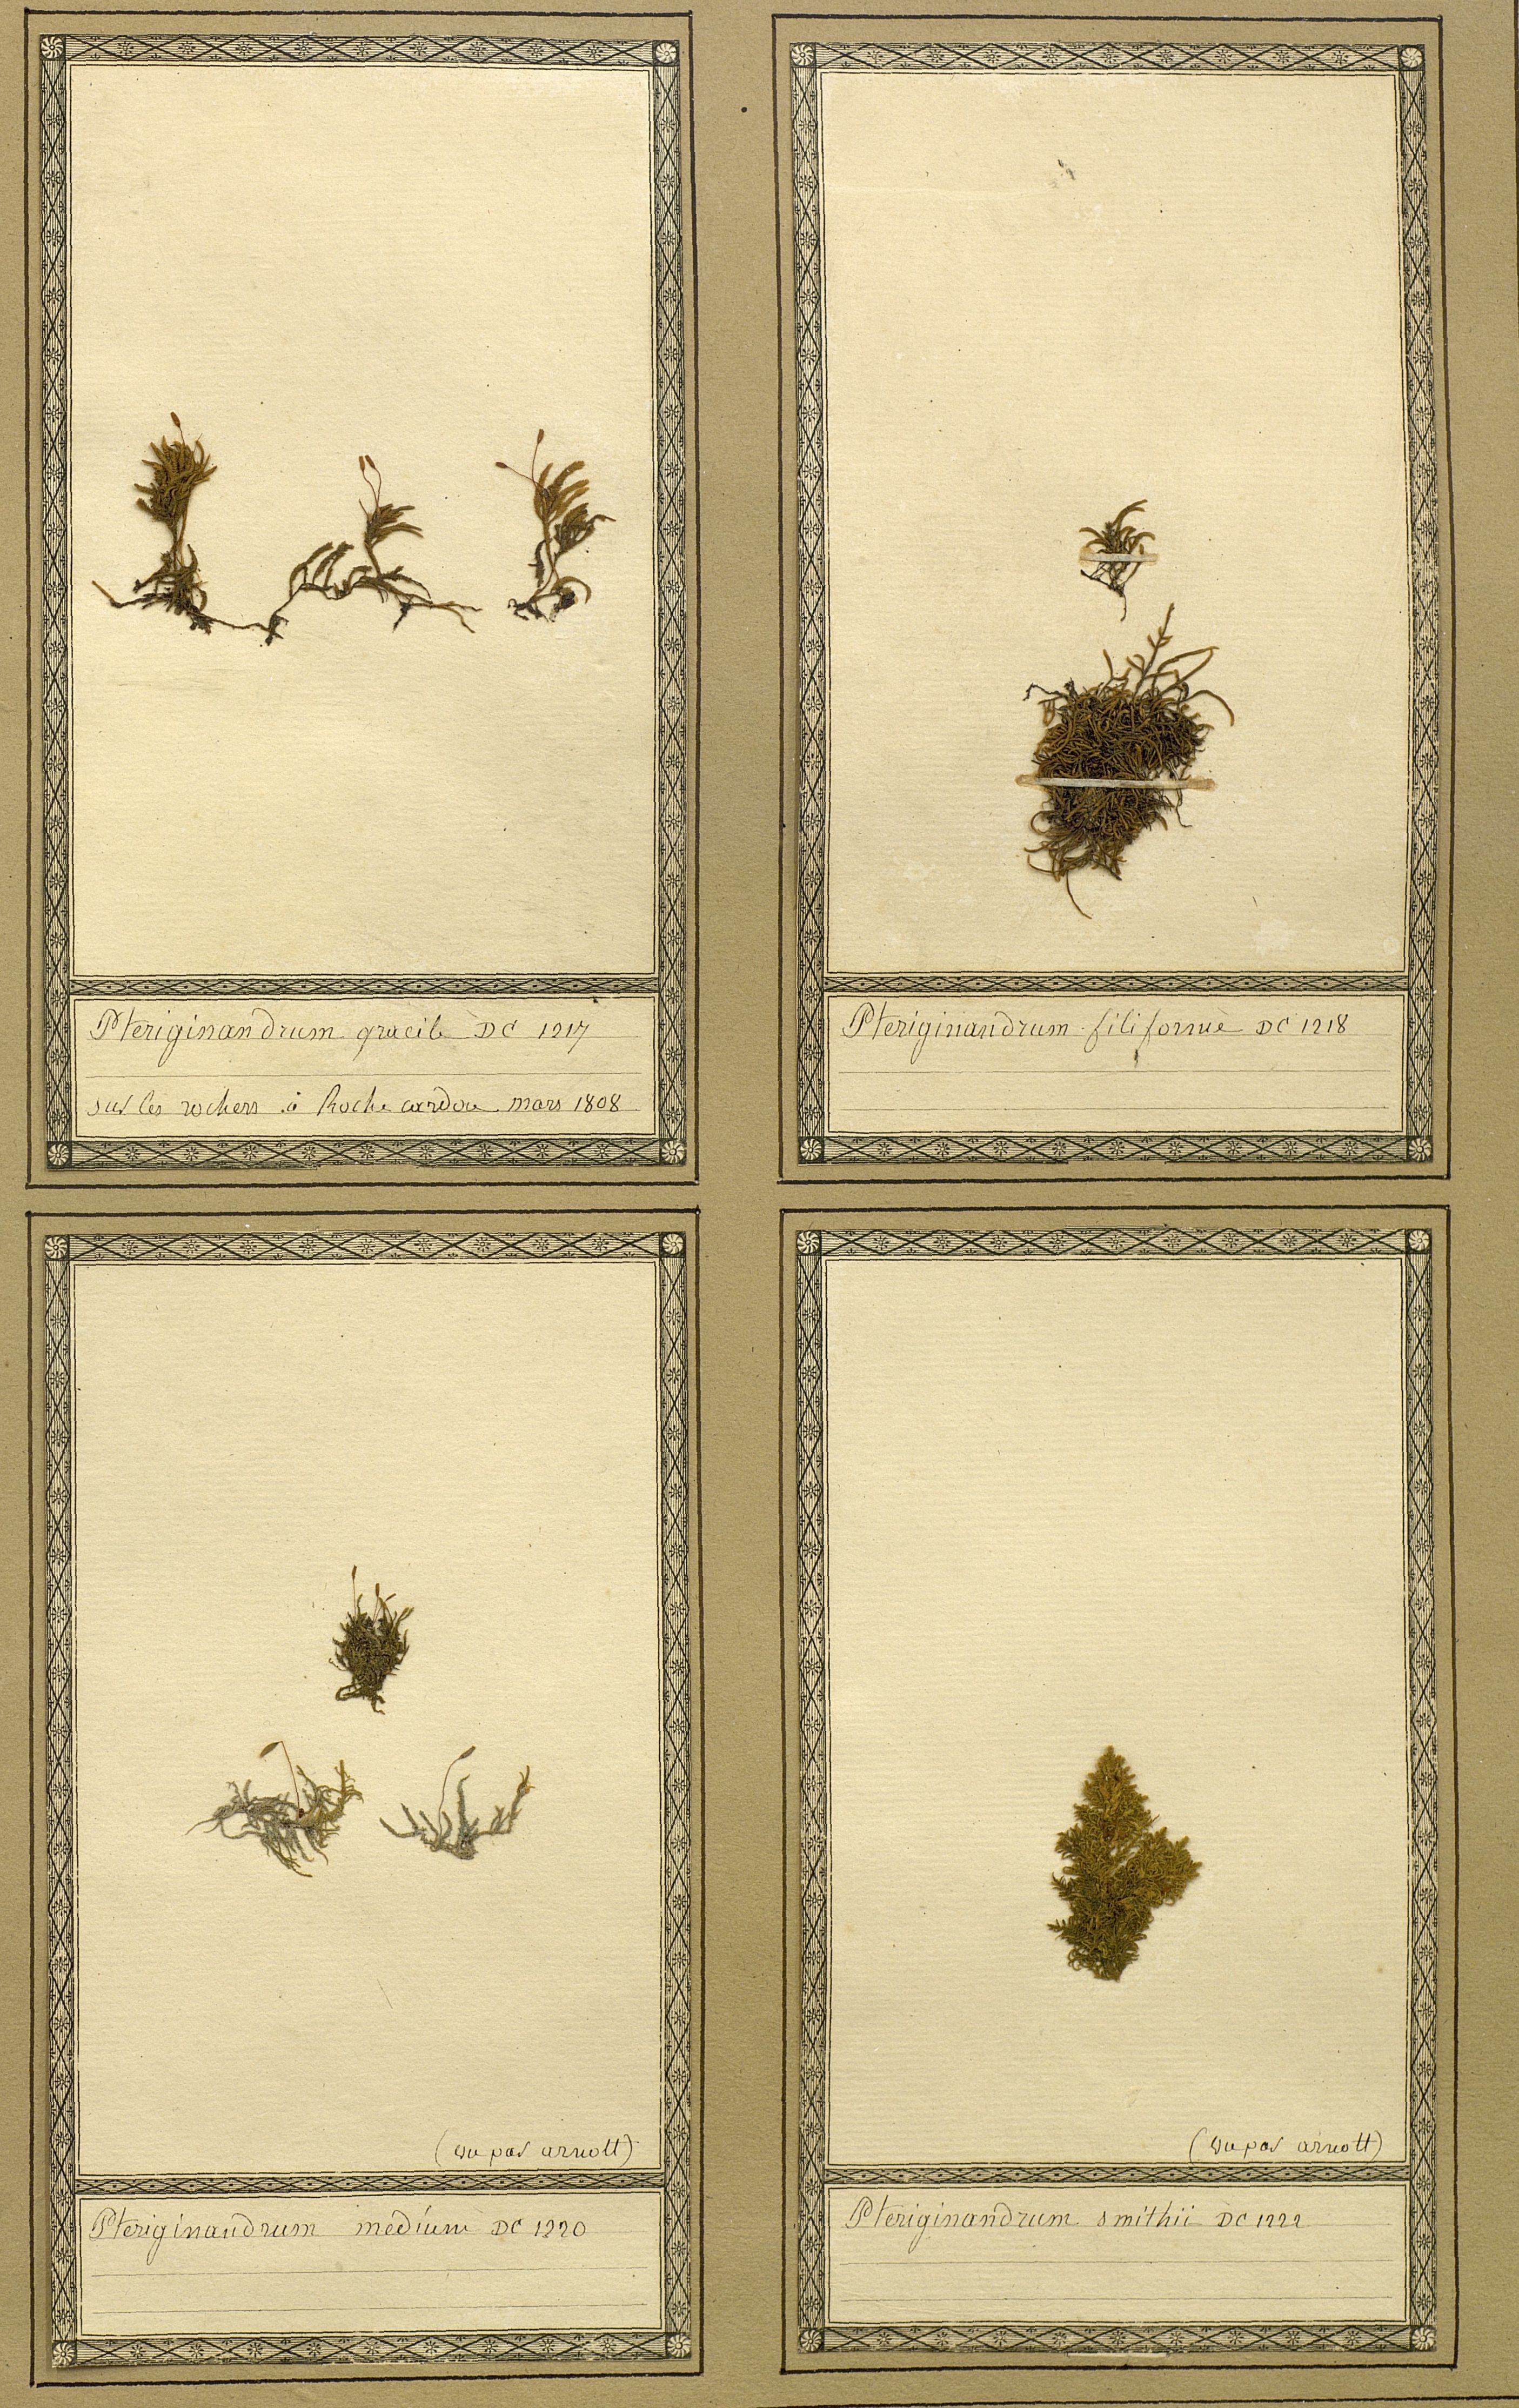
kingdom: Plantae
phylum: Bryophyta
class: Bryopsida
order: Hypnales
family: Lembophyllaceae
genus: Nogopterium
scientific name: Nogopterium gracile
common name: Bird's-foot wing-moss
